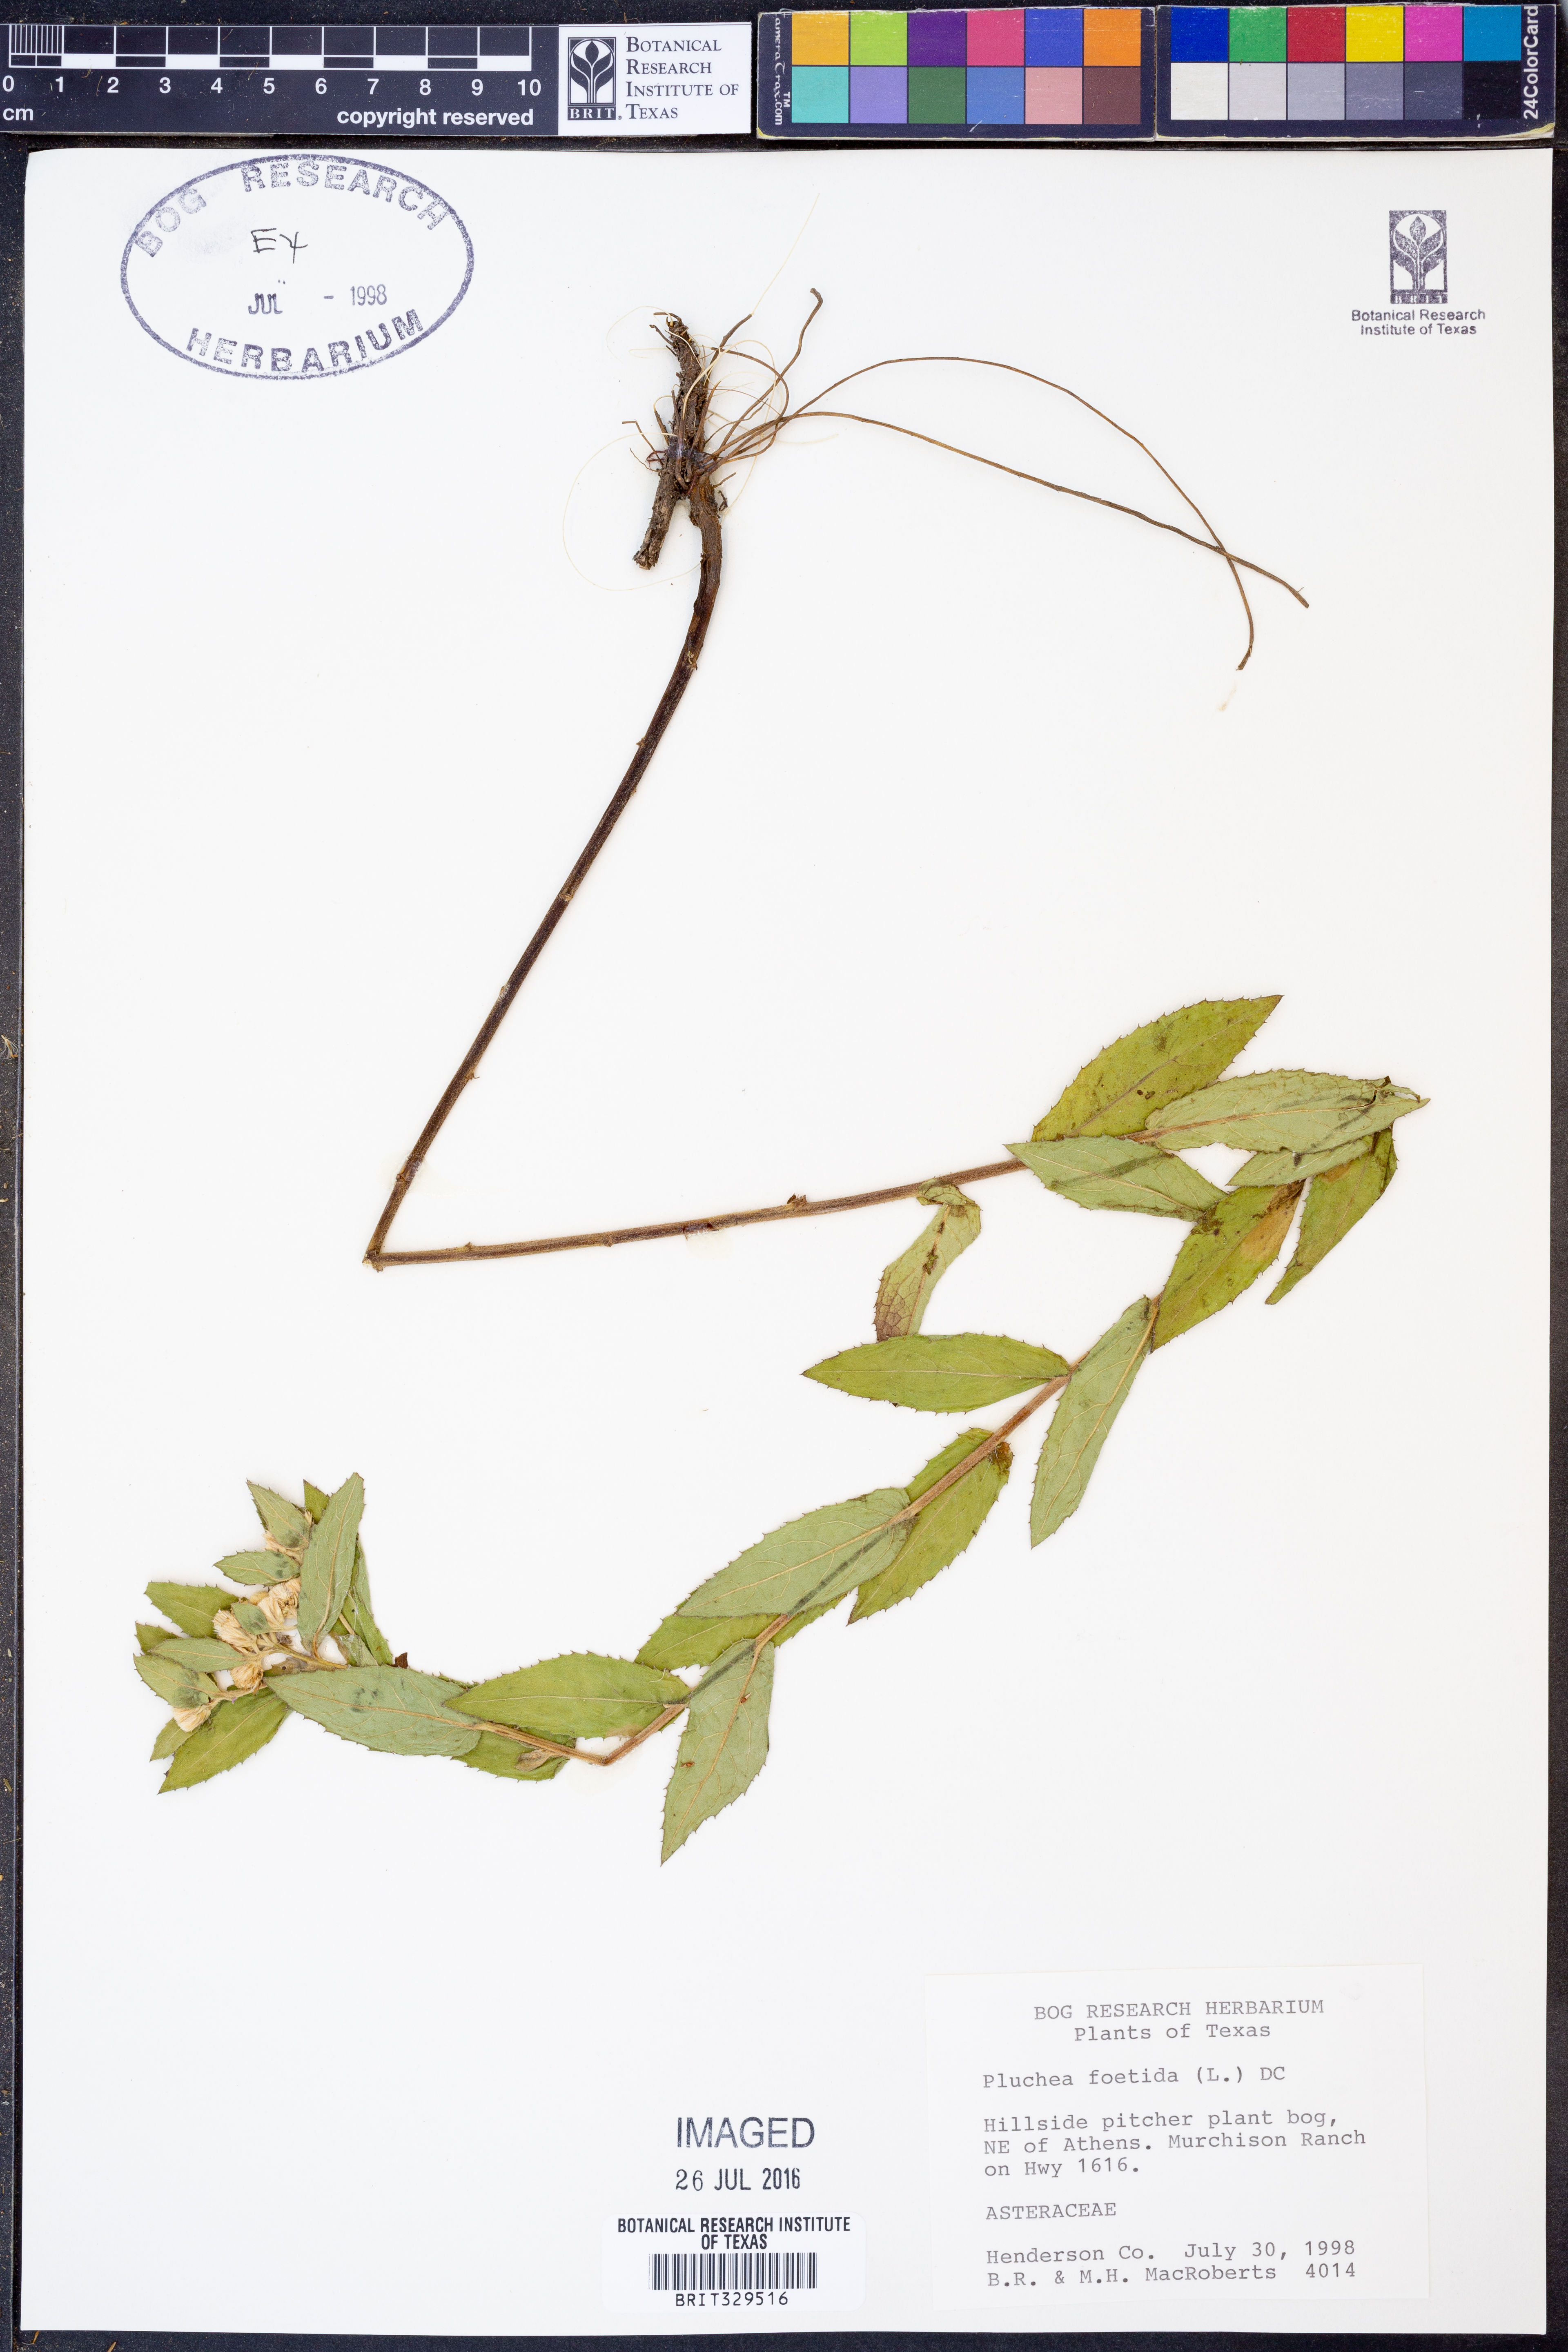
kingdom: Plantae
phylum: Tracheophyta
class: Magnoliopsida
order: Asterales
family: Asteraceae
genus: Pluchea
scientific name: Pluchea foetida
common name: Stinking camphorweed
